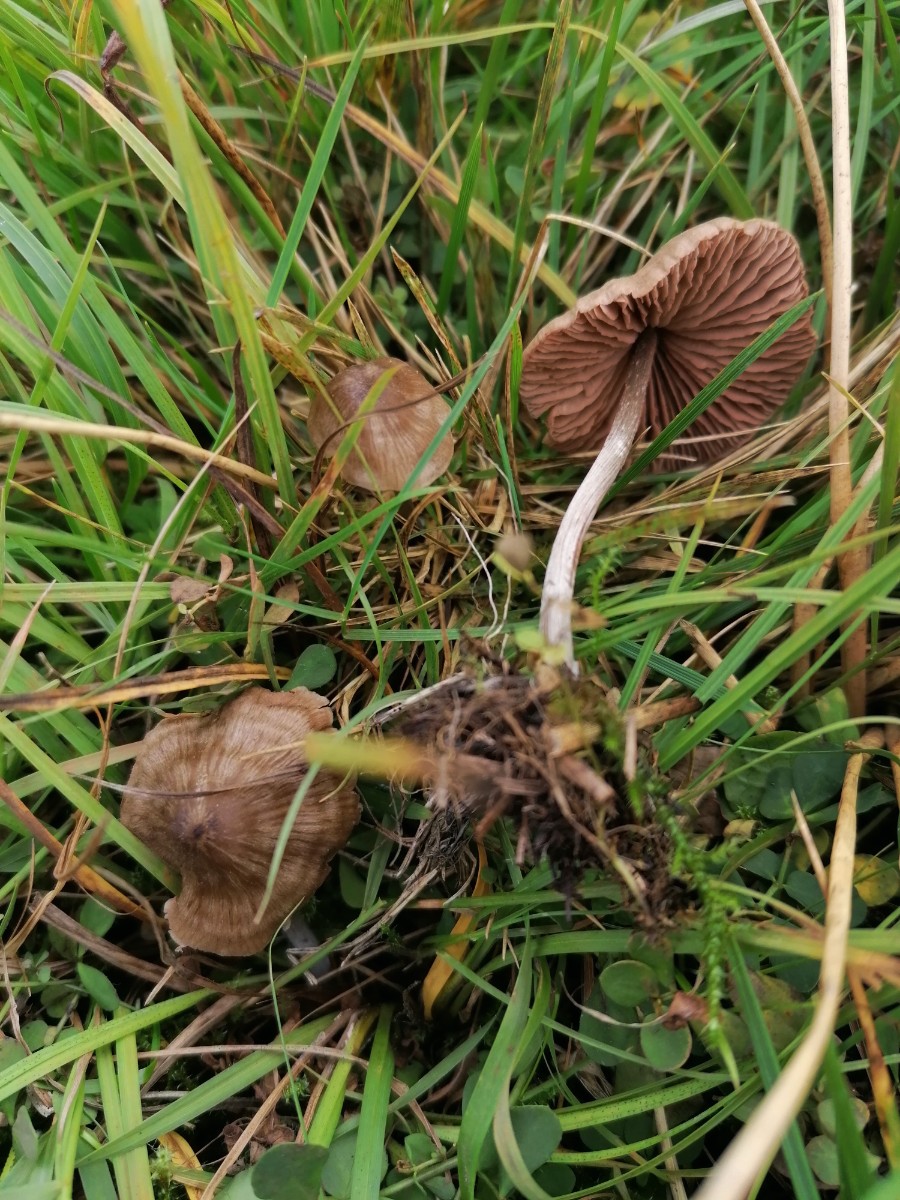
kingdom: Fungi
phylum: Basidiomycota
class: Agaricomycetes
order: Agaricales
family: Entolomataceae
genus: Entoloma
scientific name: Entoloma
